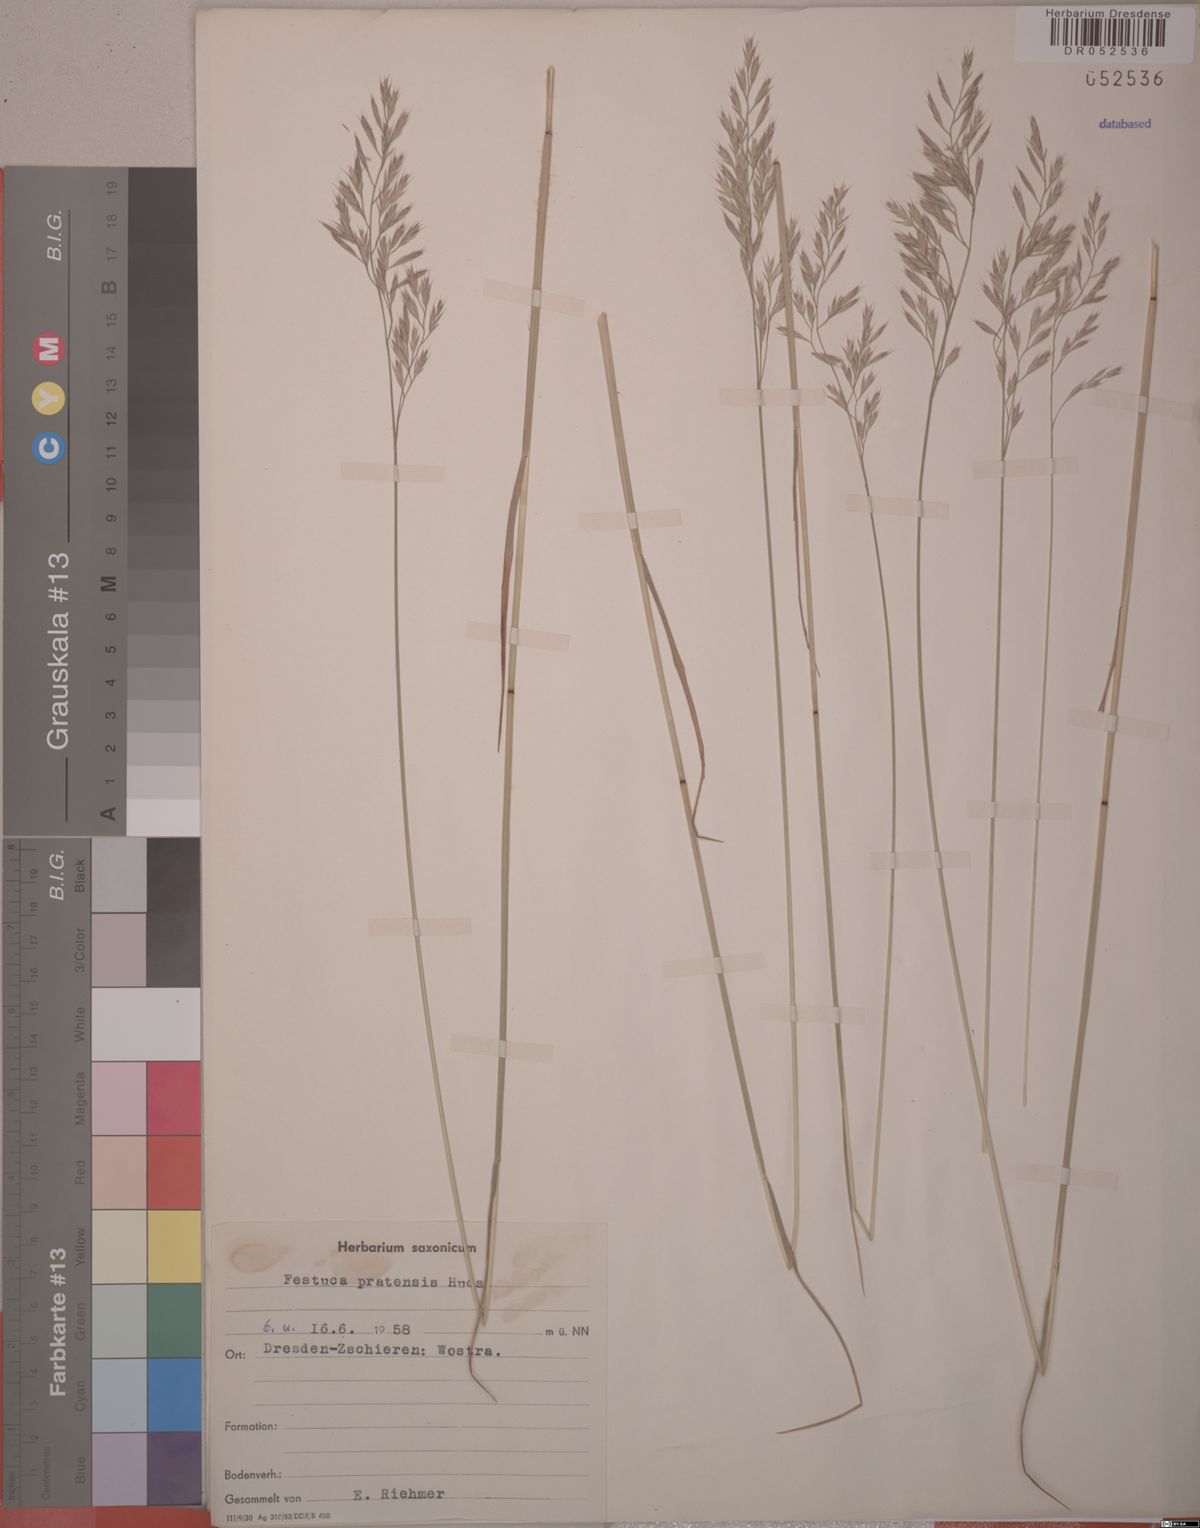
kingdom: Plantae
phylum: Tracheophyta
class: Liliopsida
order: Poales
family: Poaceae
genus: Lolium
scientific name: Lolium pratense
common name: Dover grass
